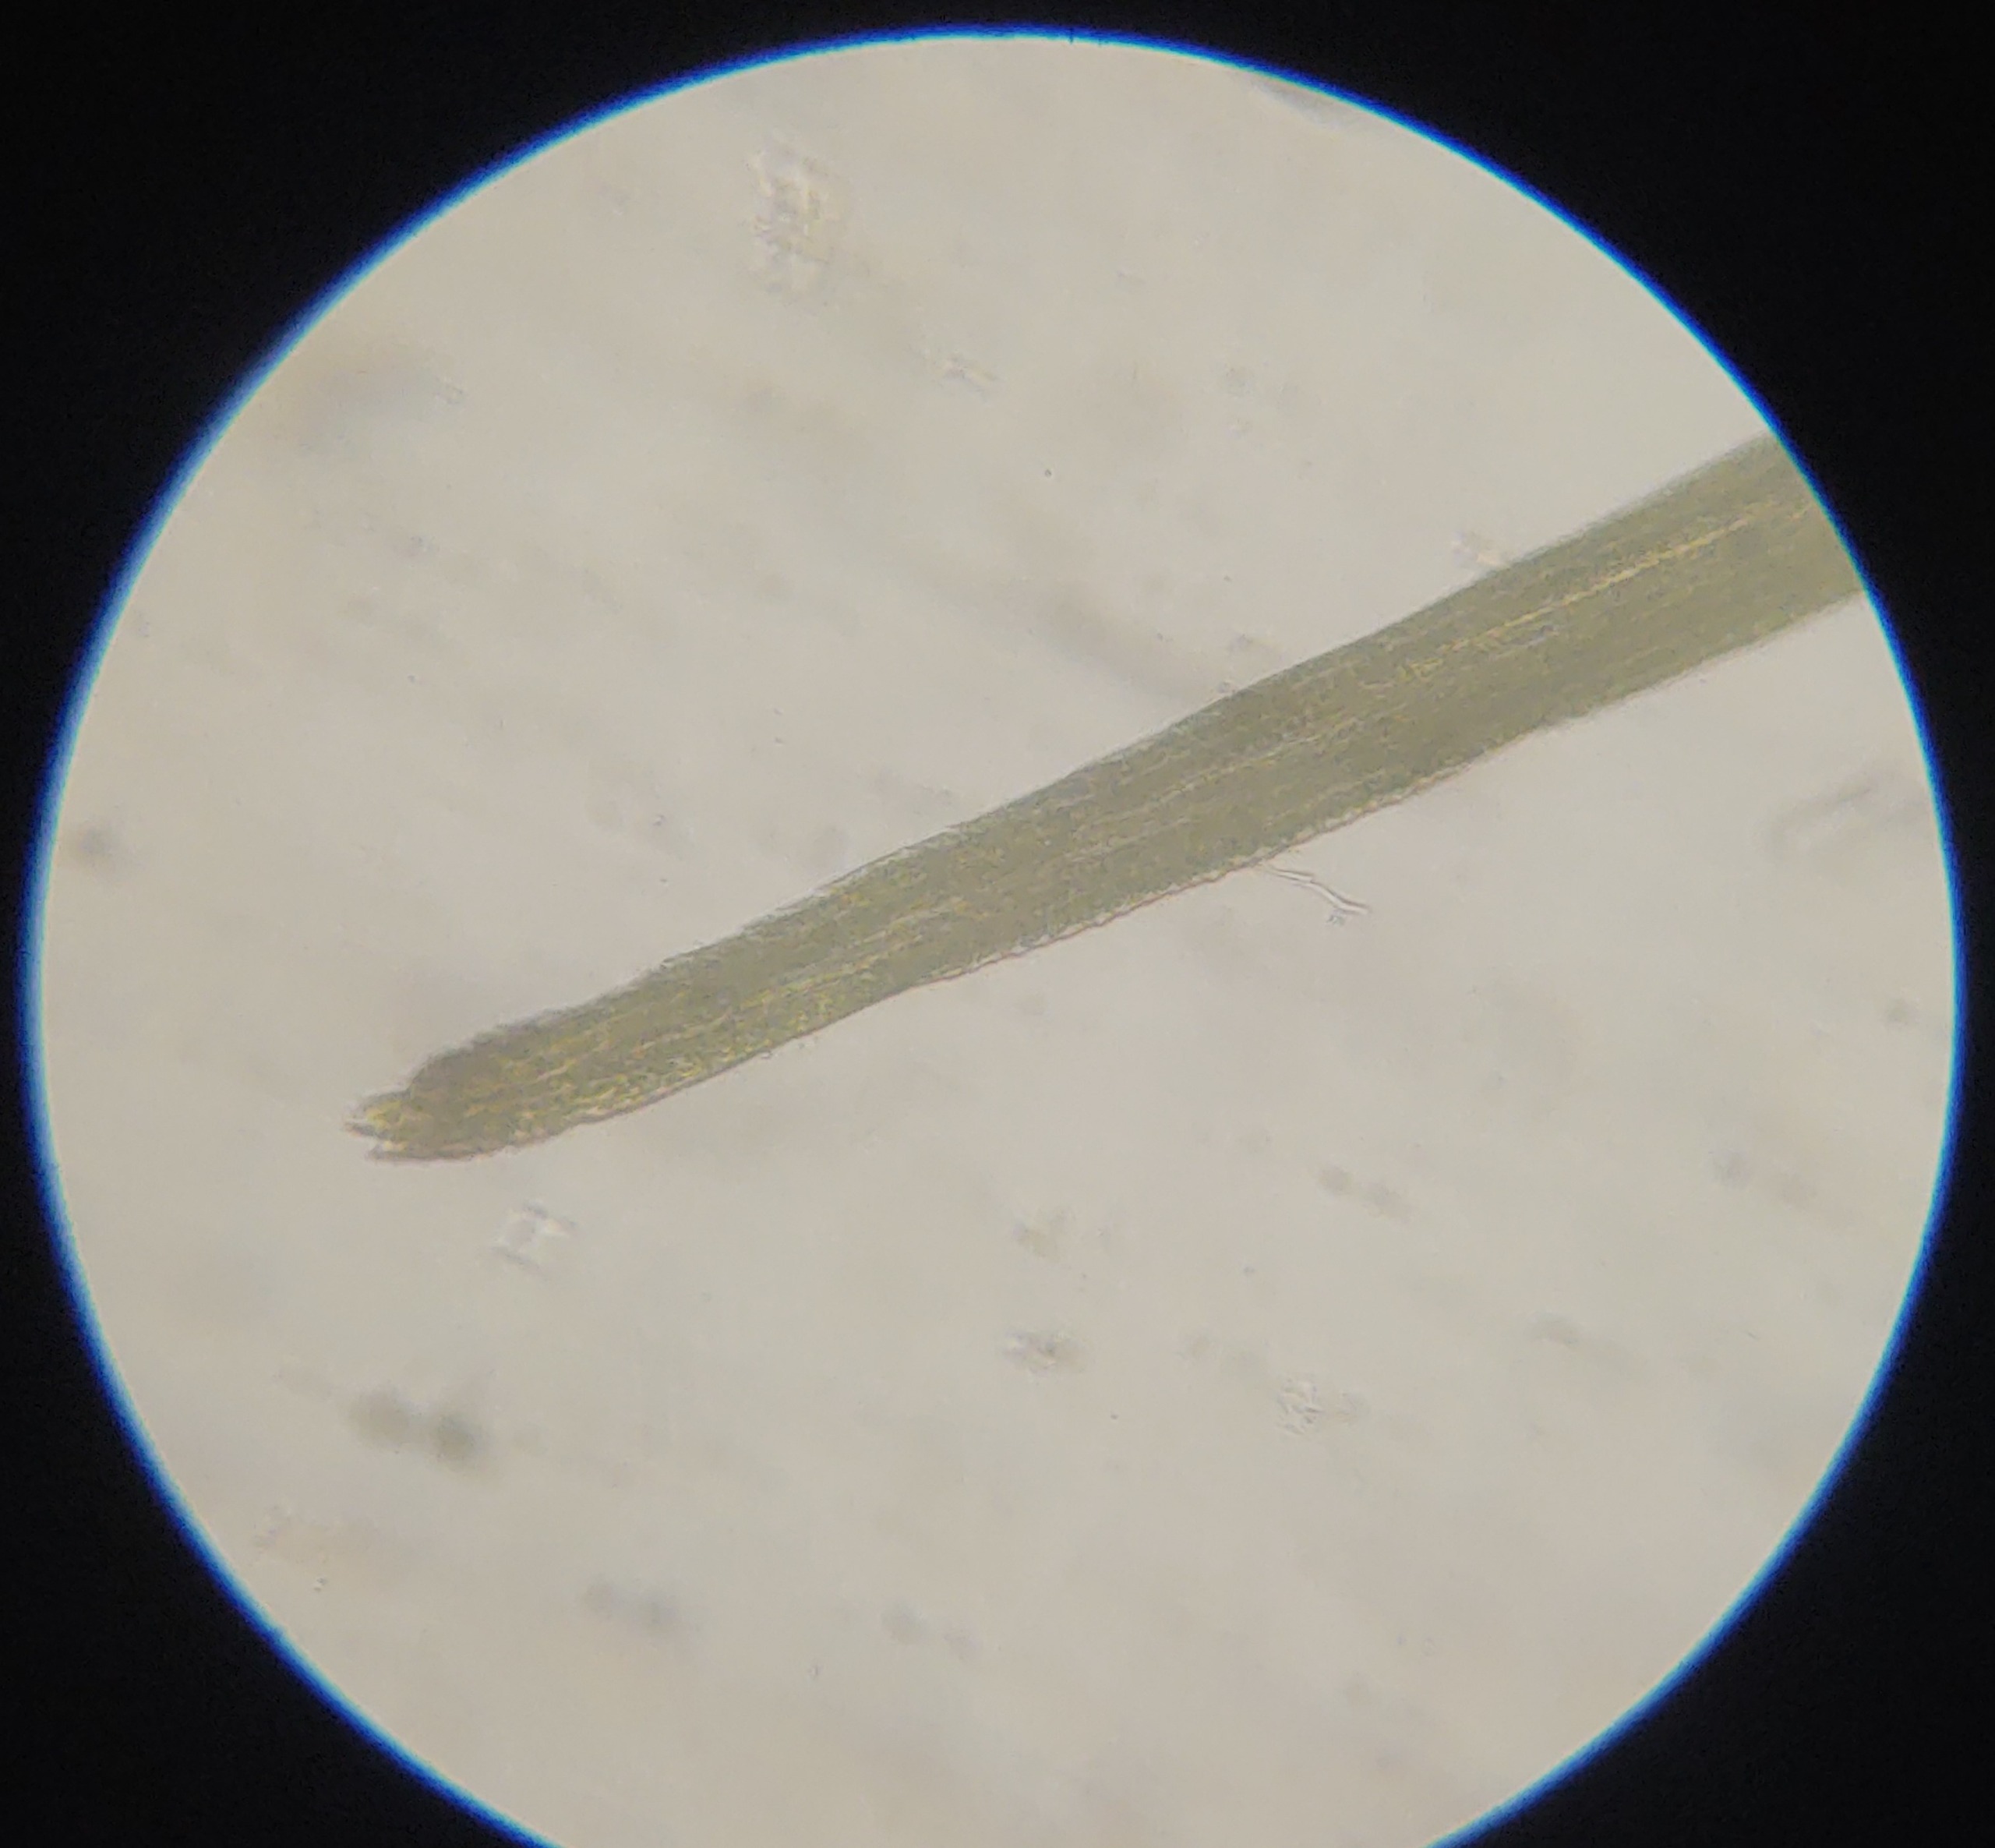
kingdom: Plantae
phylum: Bryophyta
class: Bryopsida
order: Dicranales
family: Leucobryaceae
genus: Campylopus
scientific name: Campylopus introflexus
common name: Stjerne-bredribbe
